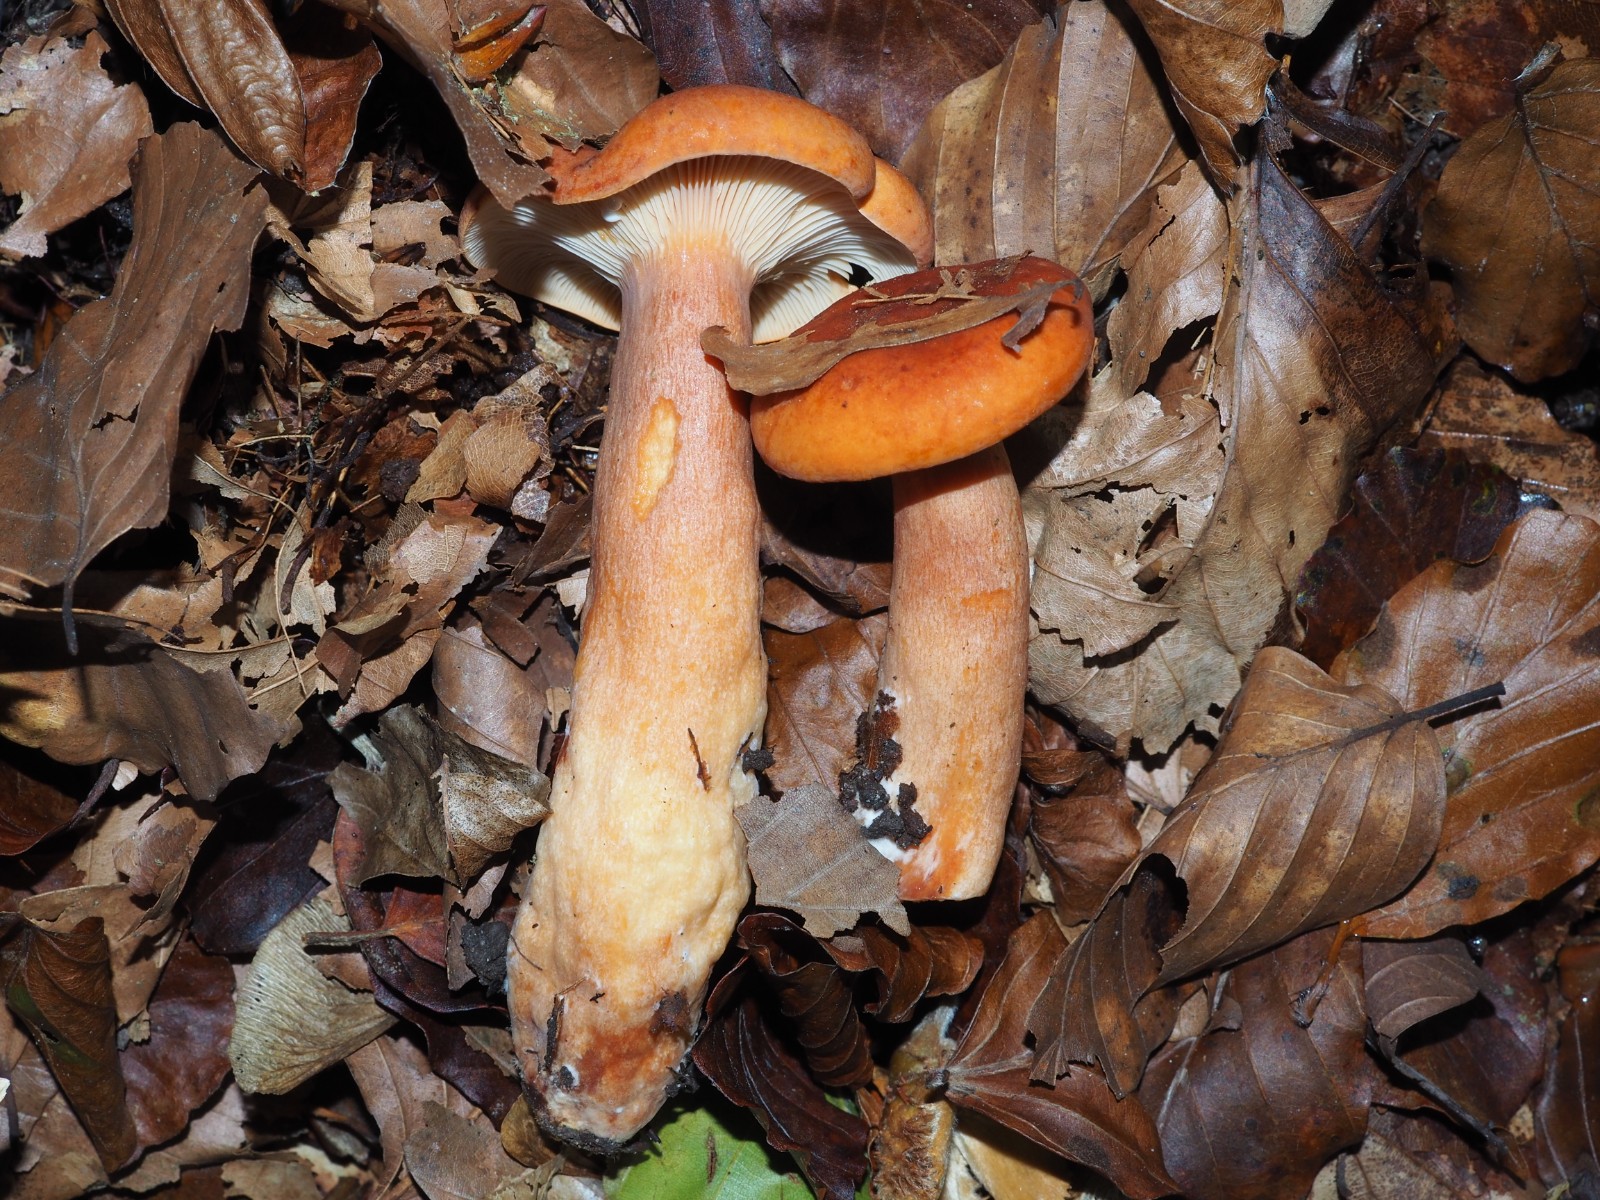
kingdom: Fungi
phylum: Basidiomycota
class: Agaricomycetes
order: Russulales
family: Russulaceae
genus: Lactarius
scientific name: Lactarius fulvissimus
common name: ræve-mælkehat
